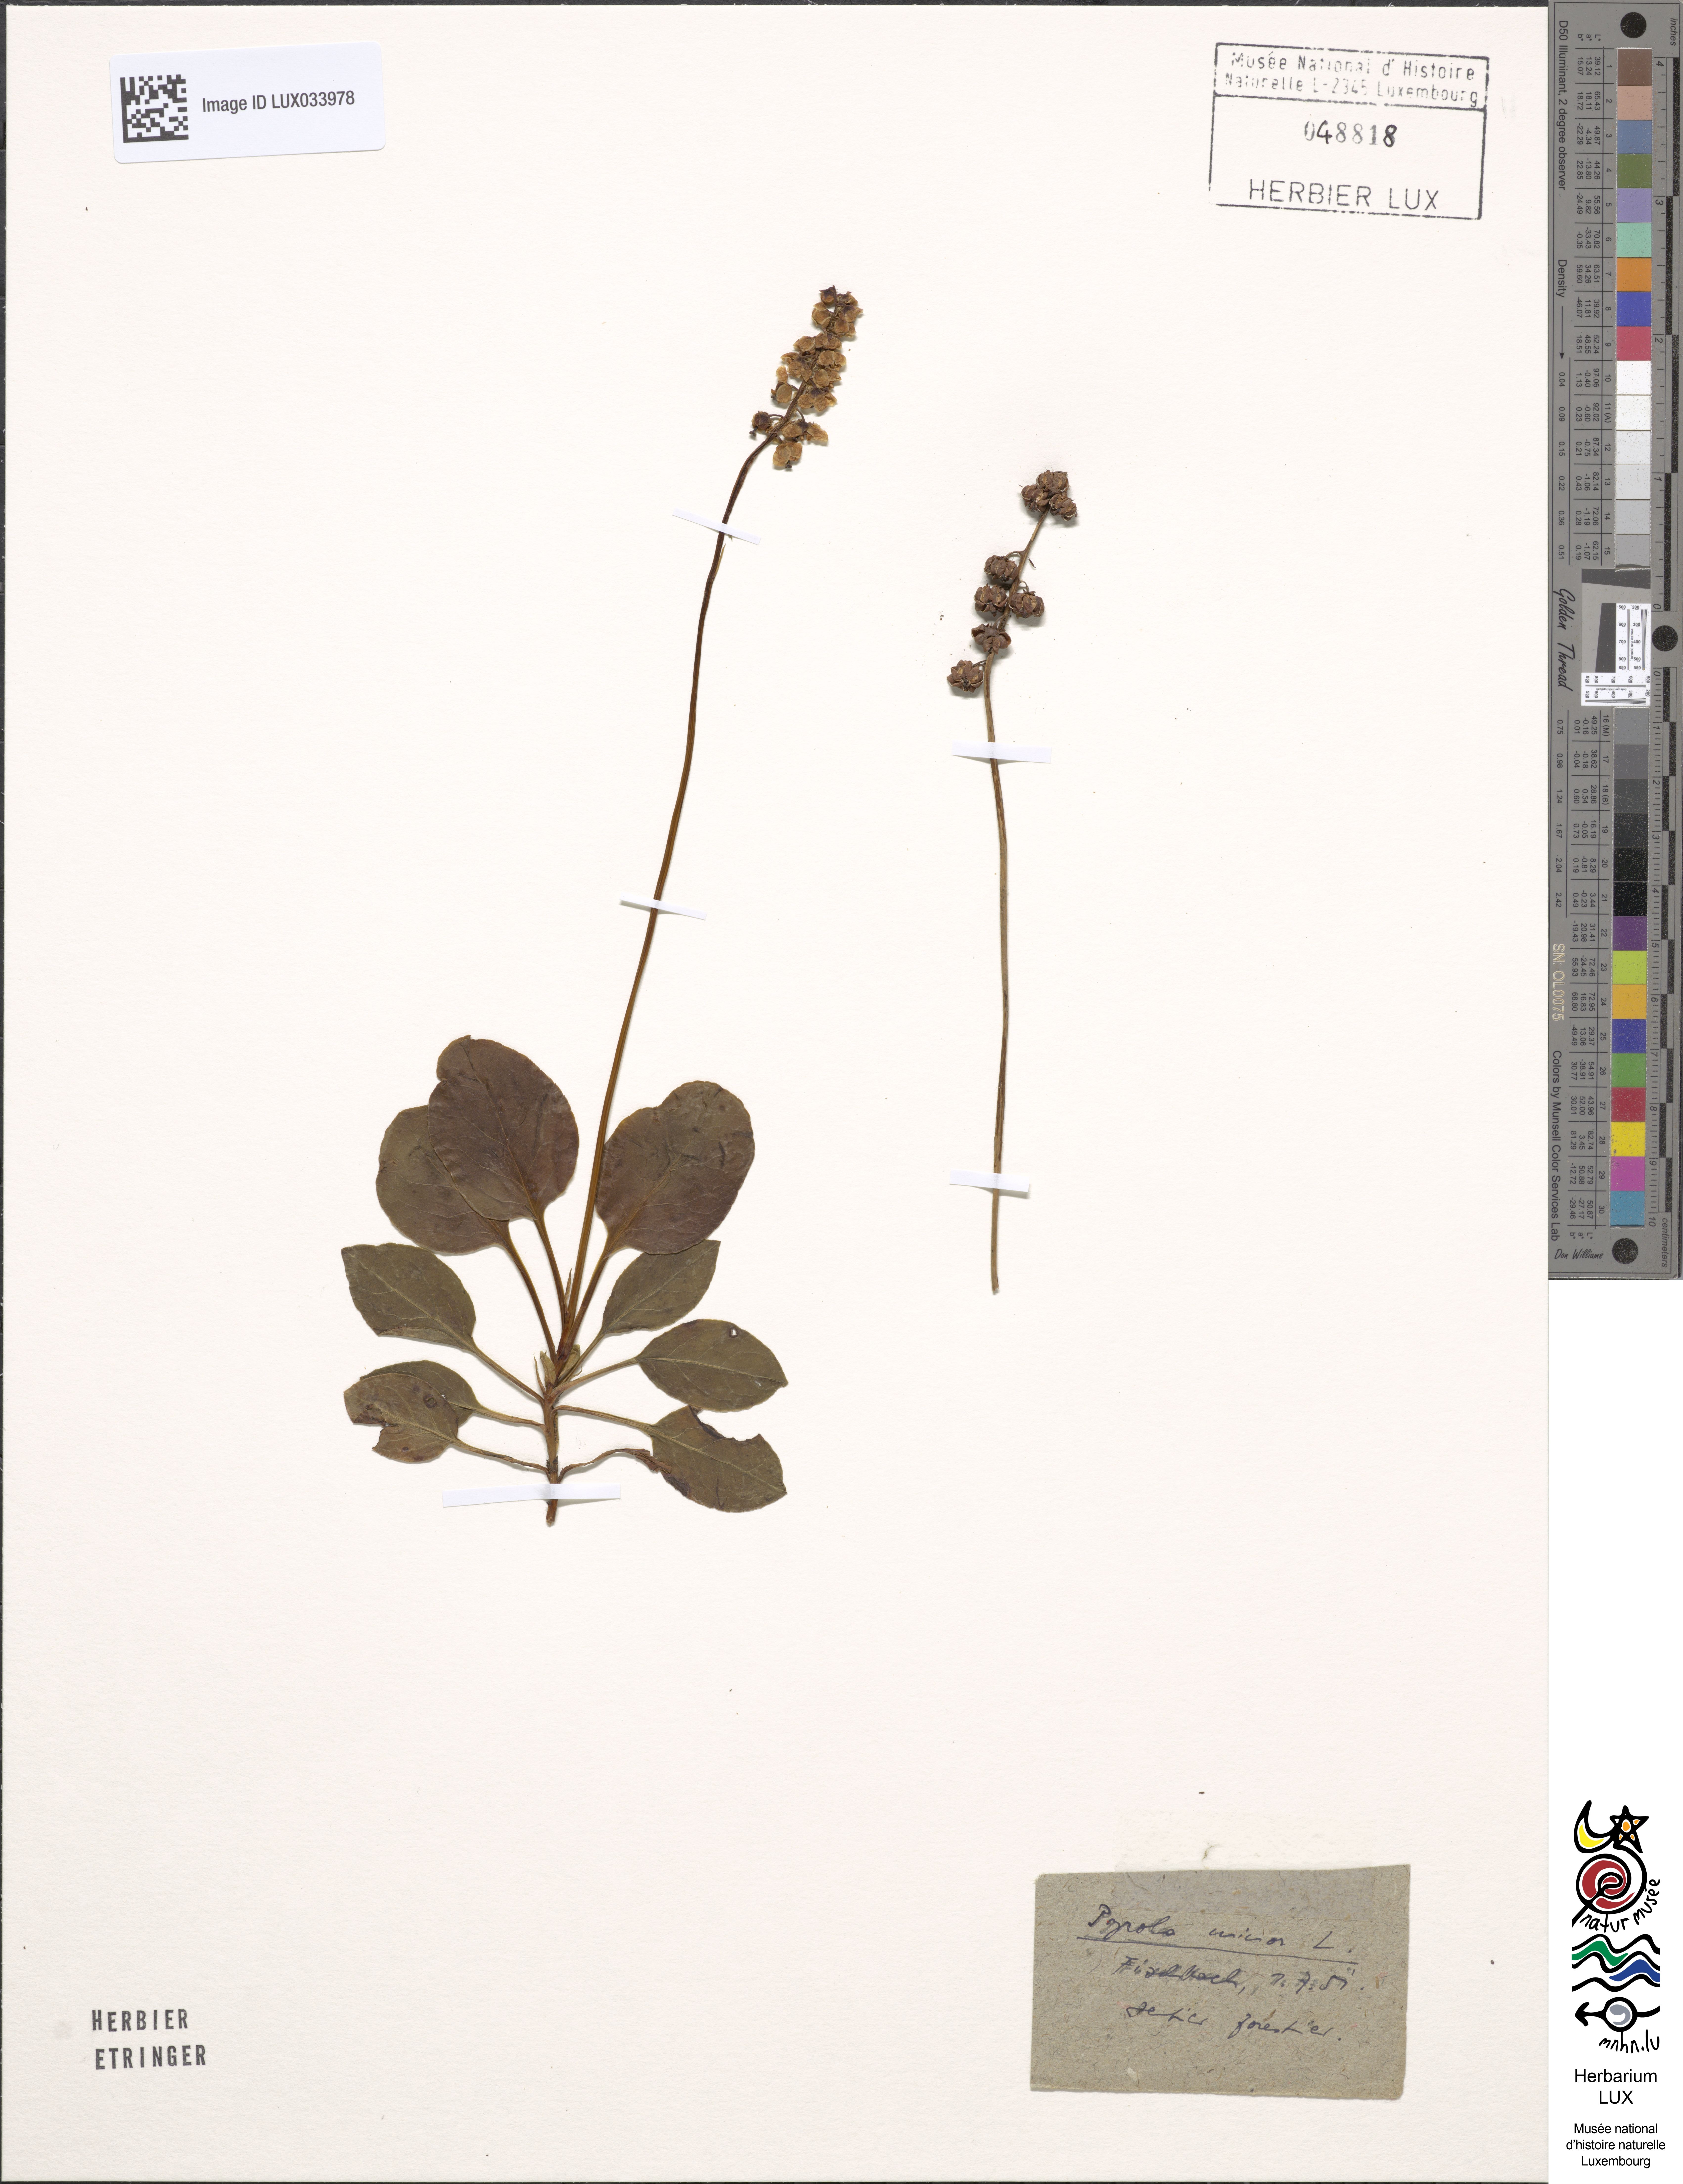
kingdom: Plantae
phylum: Tracheophyta
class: Magnoliopsida
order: Ericales
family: Ericaceae
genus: Pyrola
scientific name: Pyrola minor
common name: Common wintergreen
